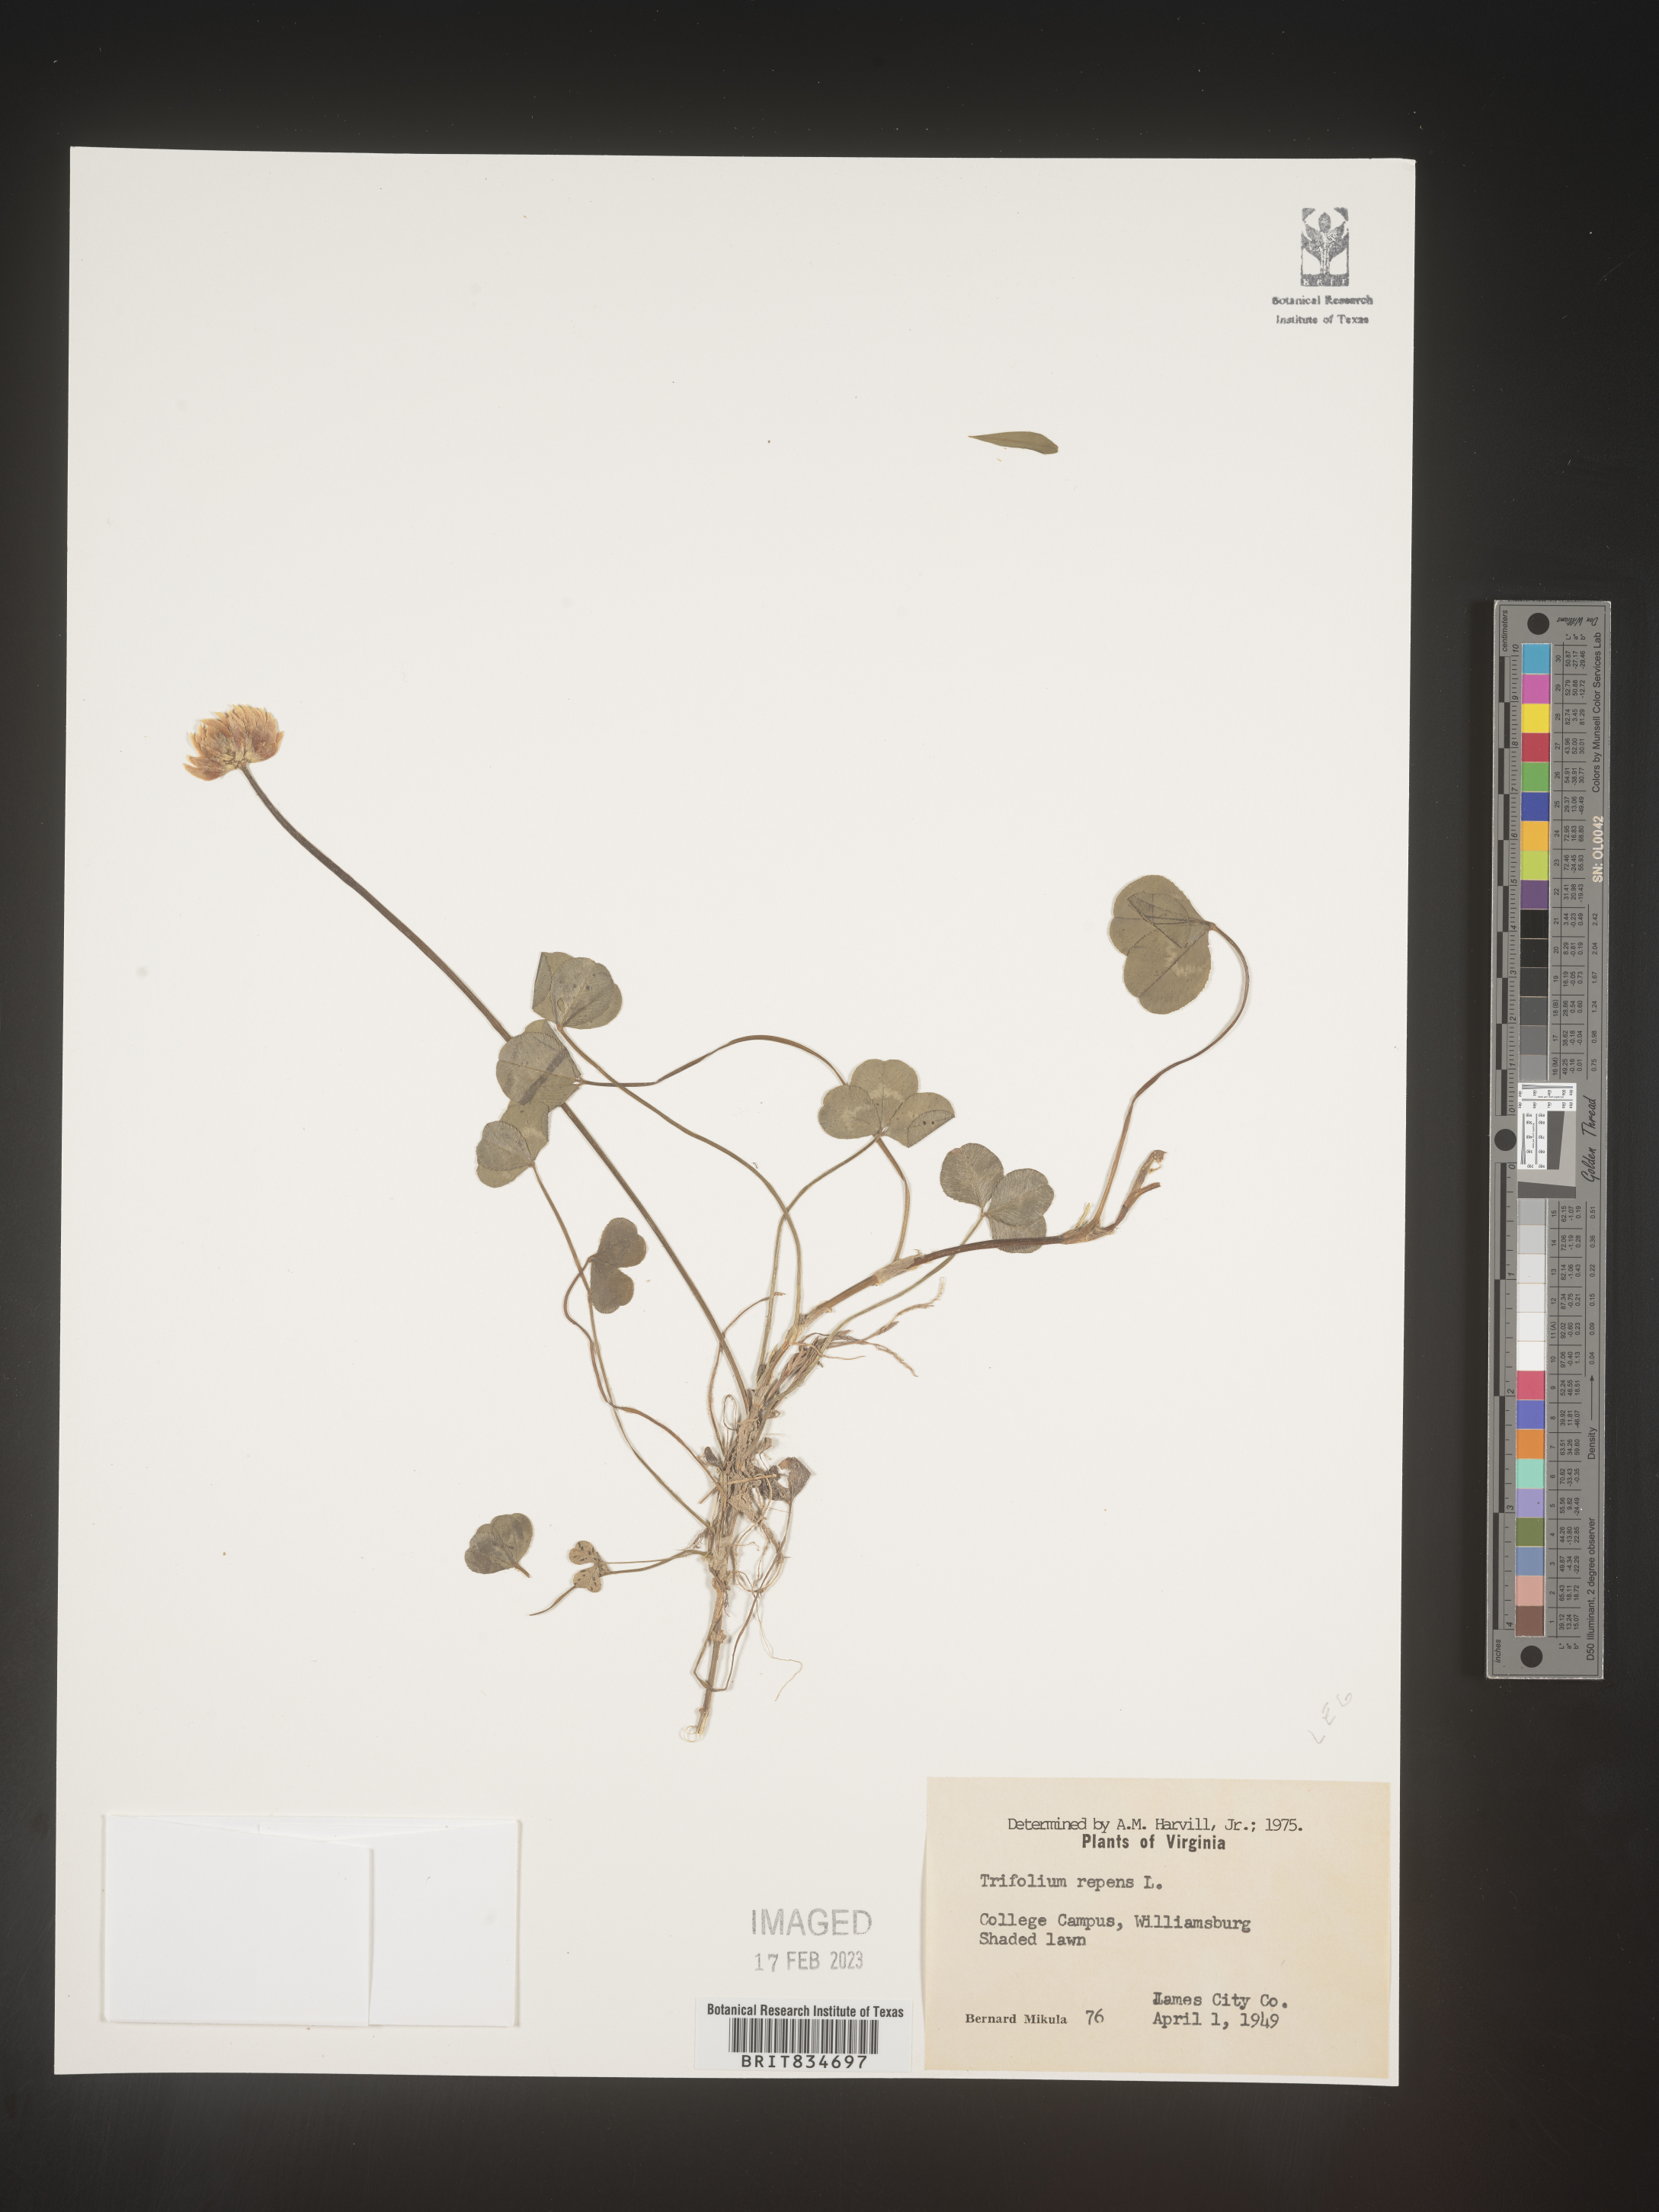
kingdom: Plantae
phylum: Tracheophyta
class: Magnoliopsida
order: Fabales
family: Fabaceae
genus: Trifolium
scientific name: Trifolium repens
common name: White clover
